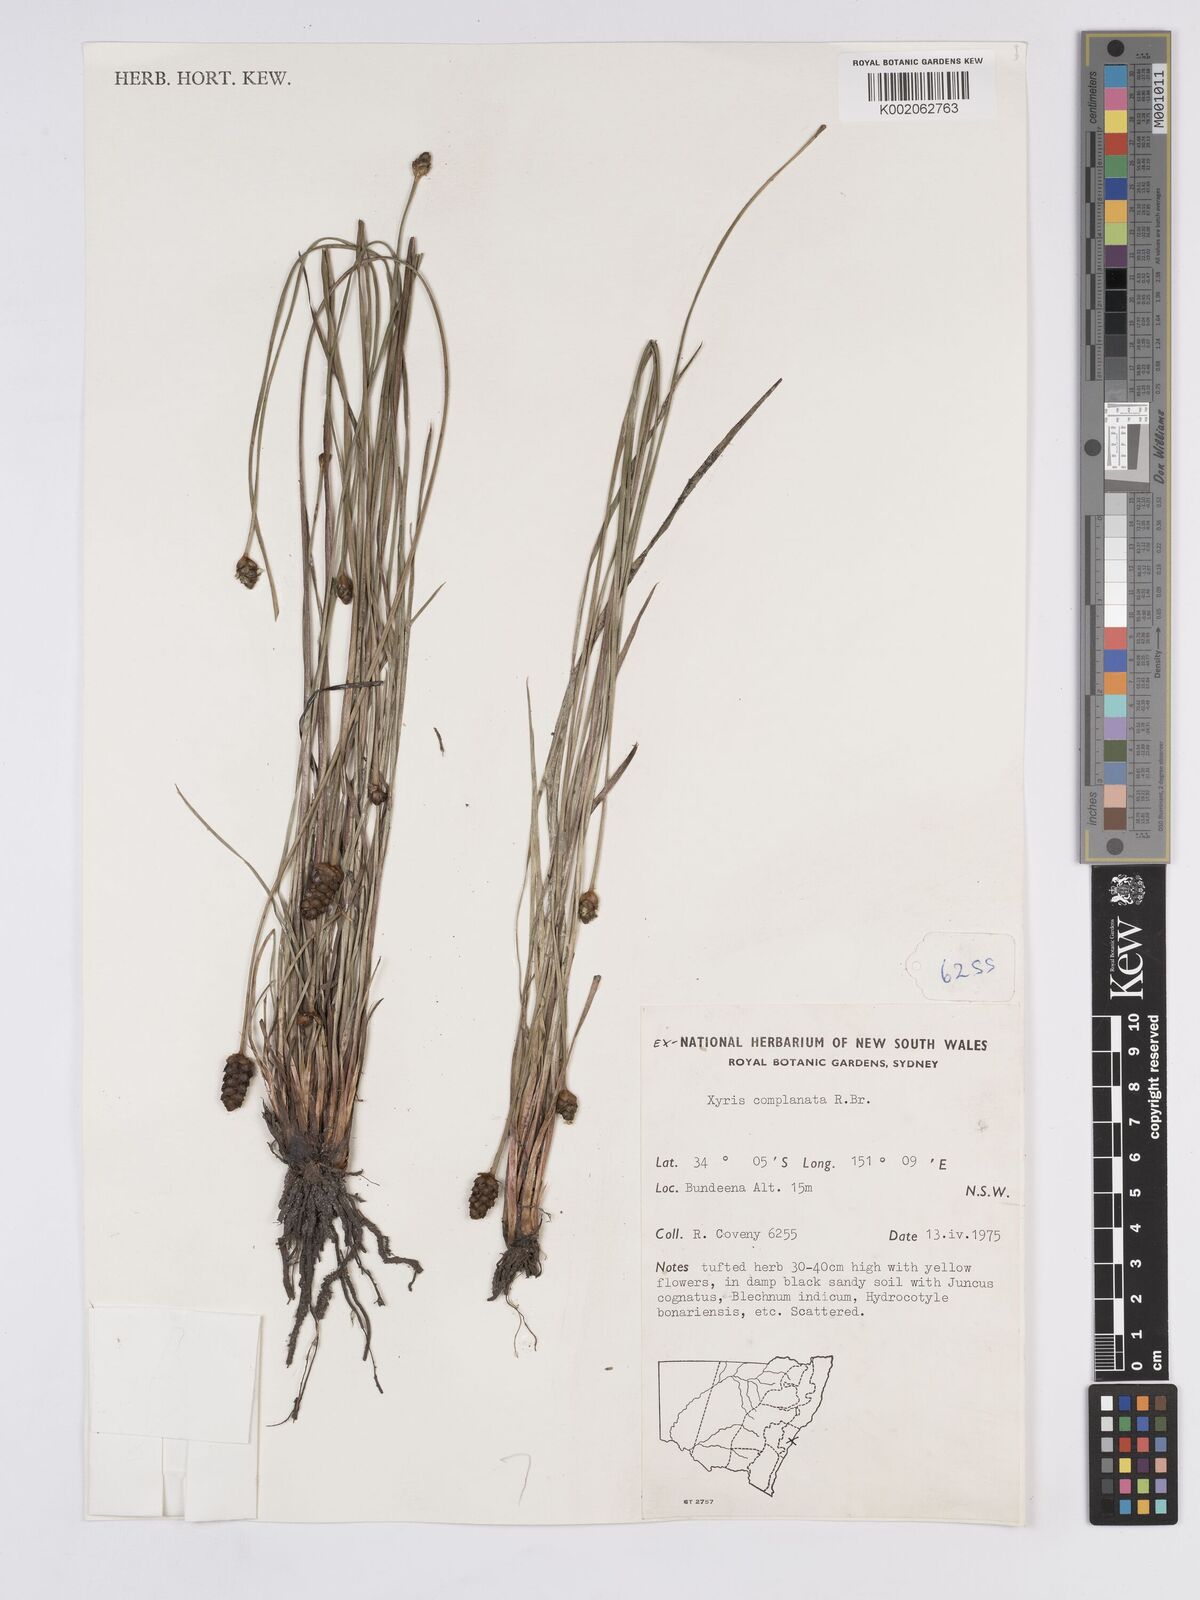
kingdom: Plantae
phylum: Tracheophyta
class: Liliopsida
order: Poales
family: Xyridaceae
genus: Xyris
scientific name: Xyris complanata
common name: Hawai'i yelloweyed grass
